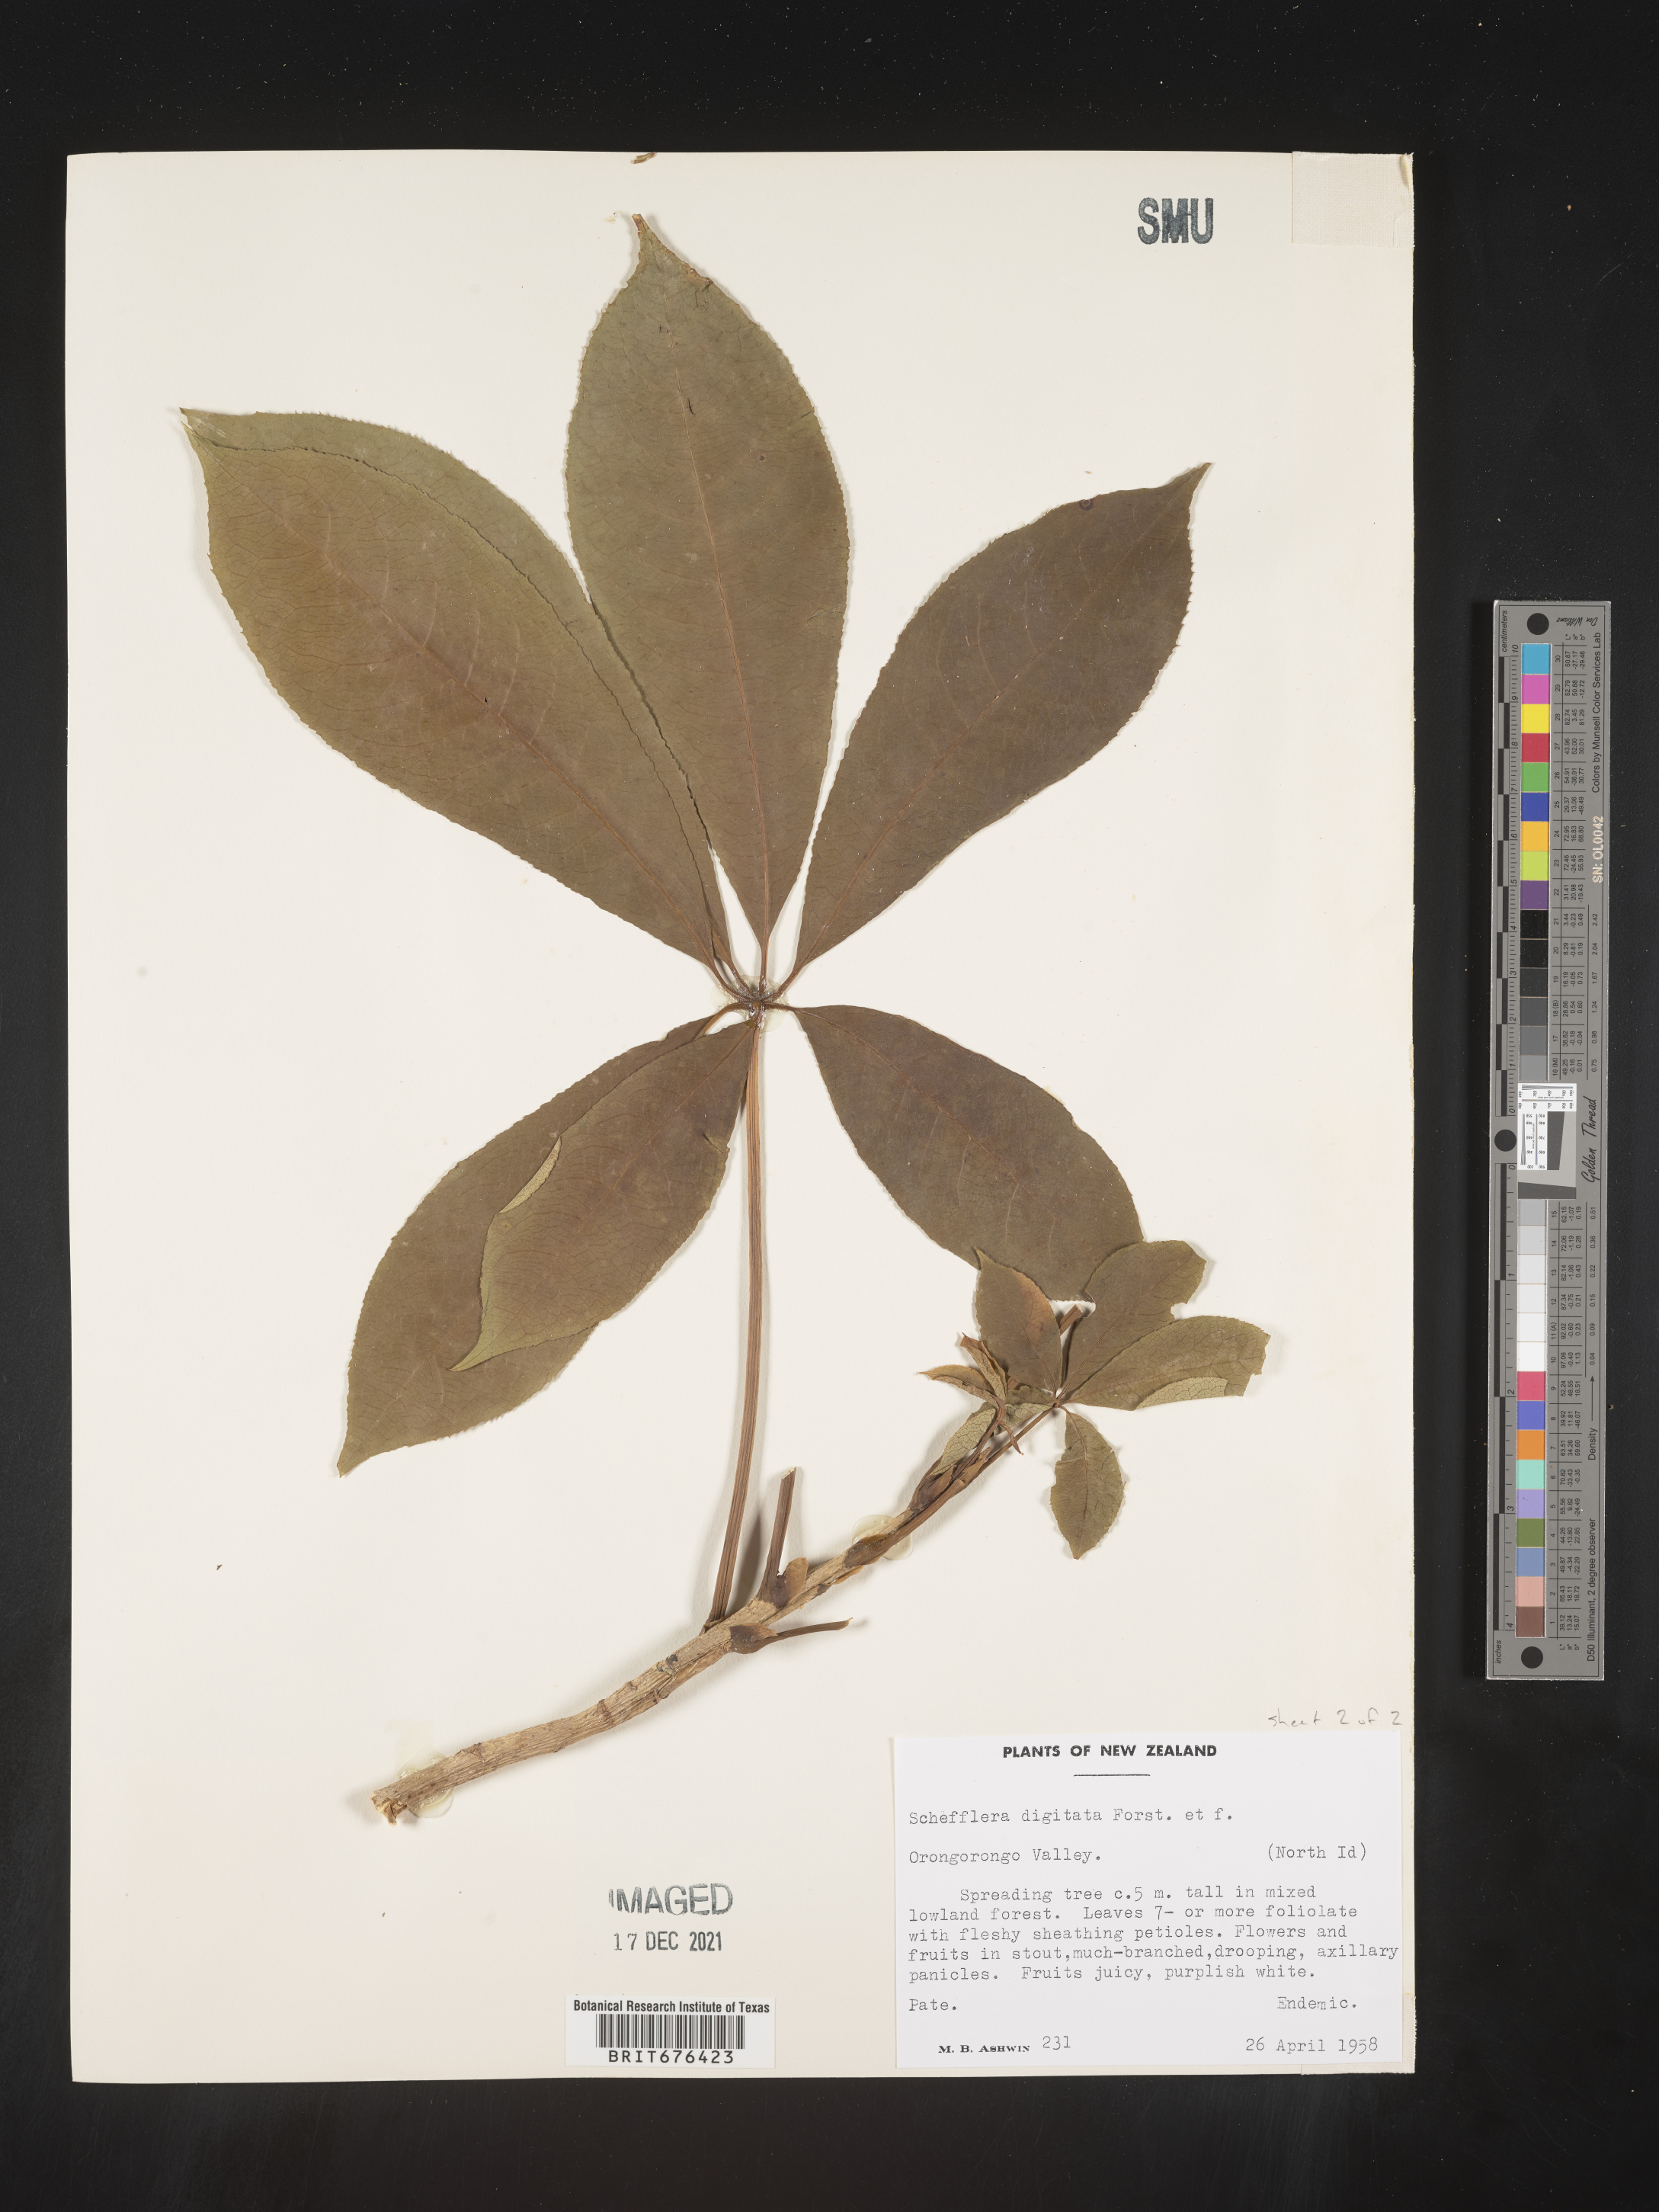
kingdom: Plantae
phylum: Tracheophyta
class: Magnoliopsida
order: Apiales
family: Araliaceae
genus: Schefflera
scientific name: Schefflera digitata
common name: Pate
